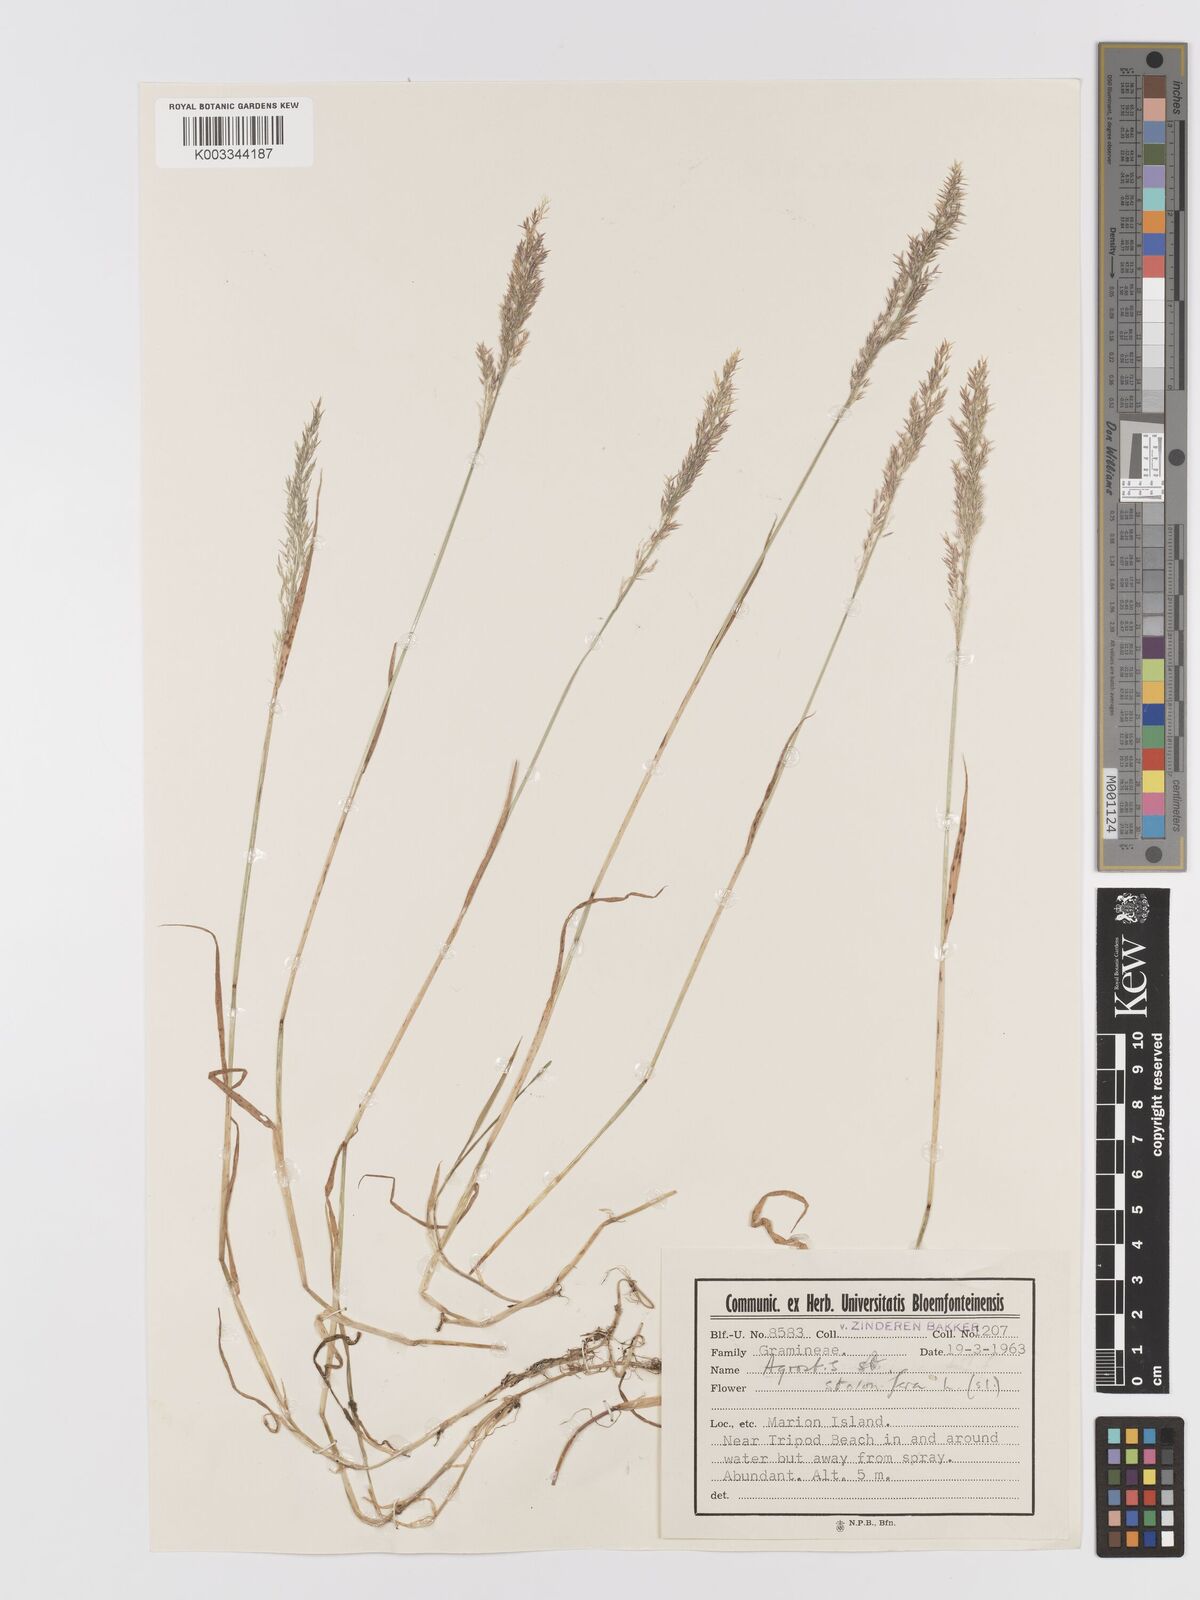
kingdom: Plantae
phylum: Tracheophyta
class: Liliopsida
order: Poales
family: Poaceae
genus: Agrostis
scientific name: Agrostis stolonifera
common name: Creeping bentgrass
